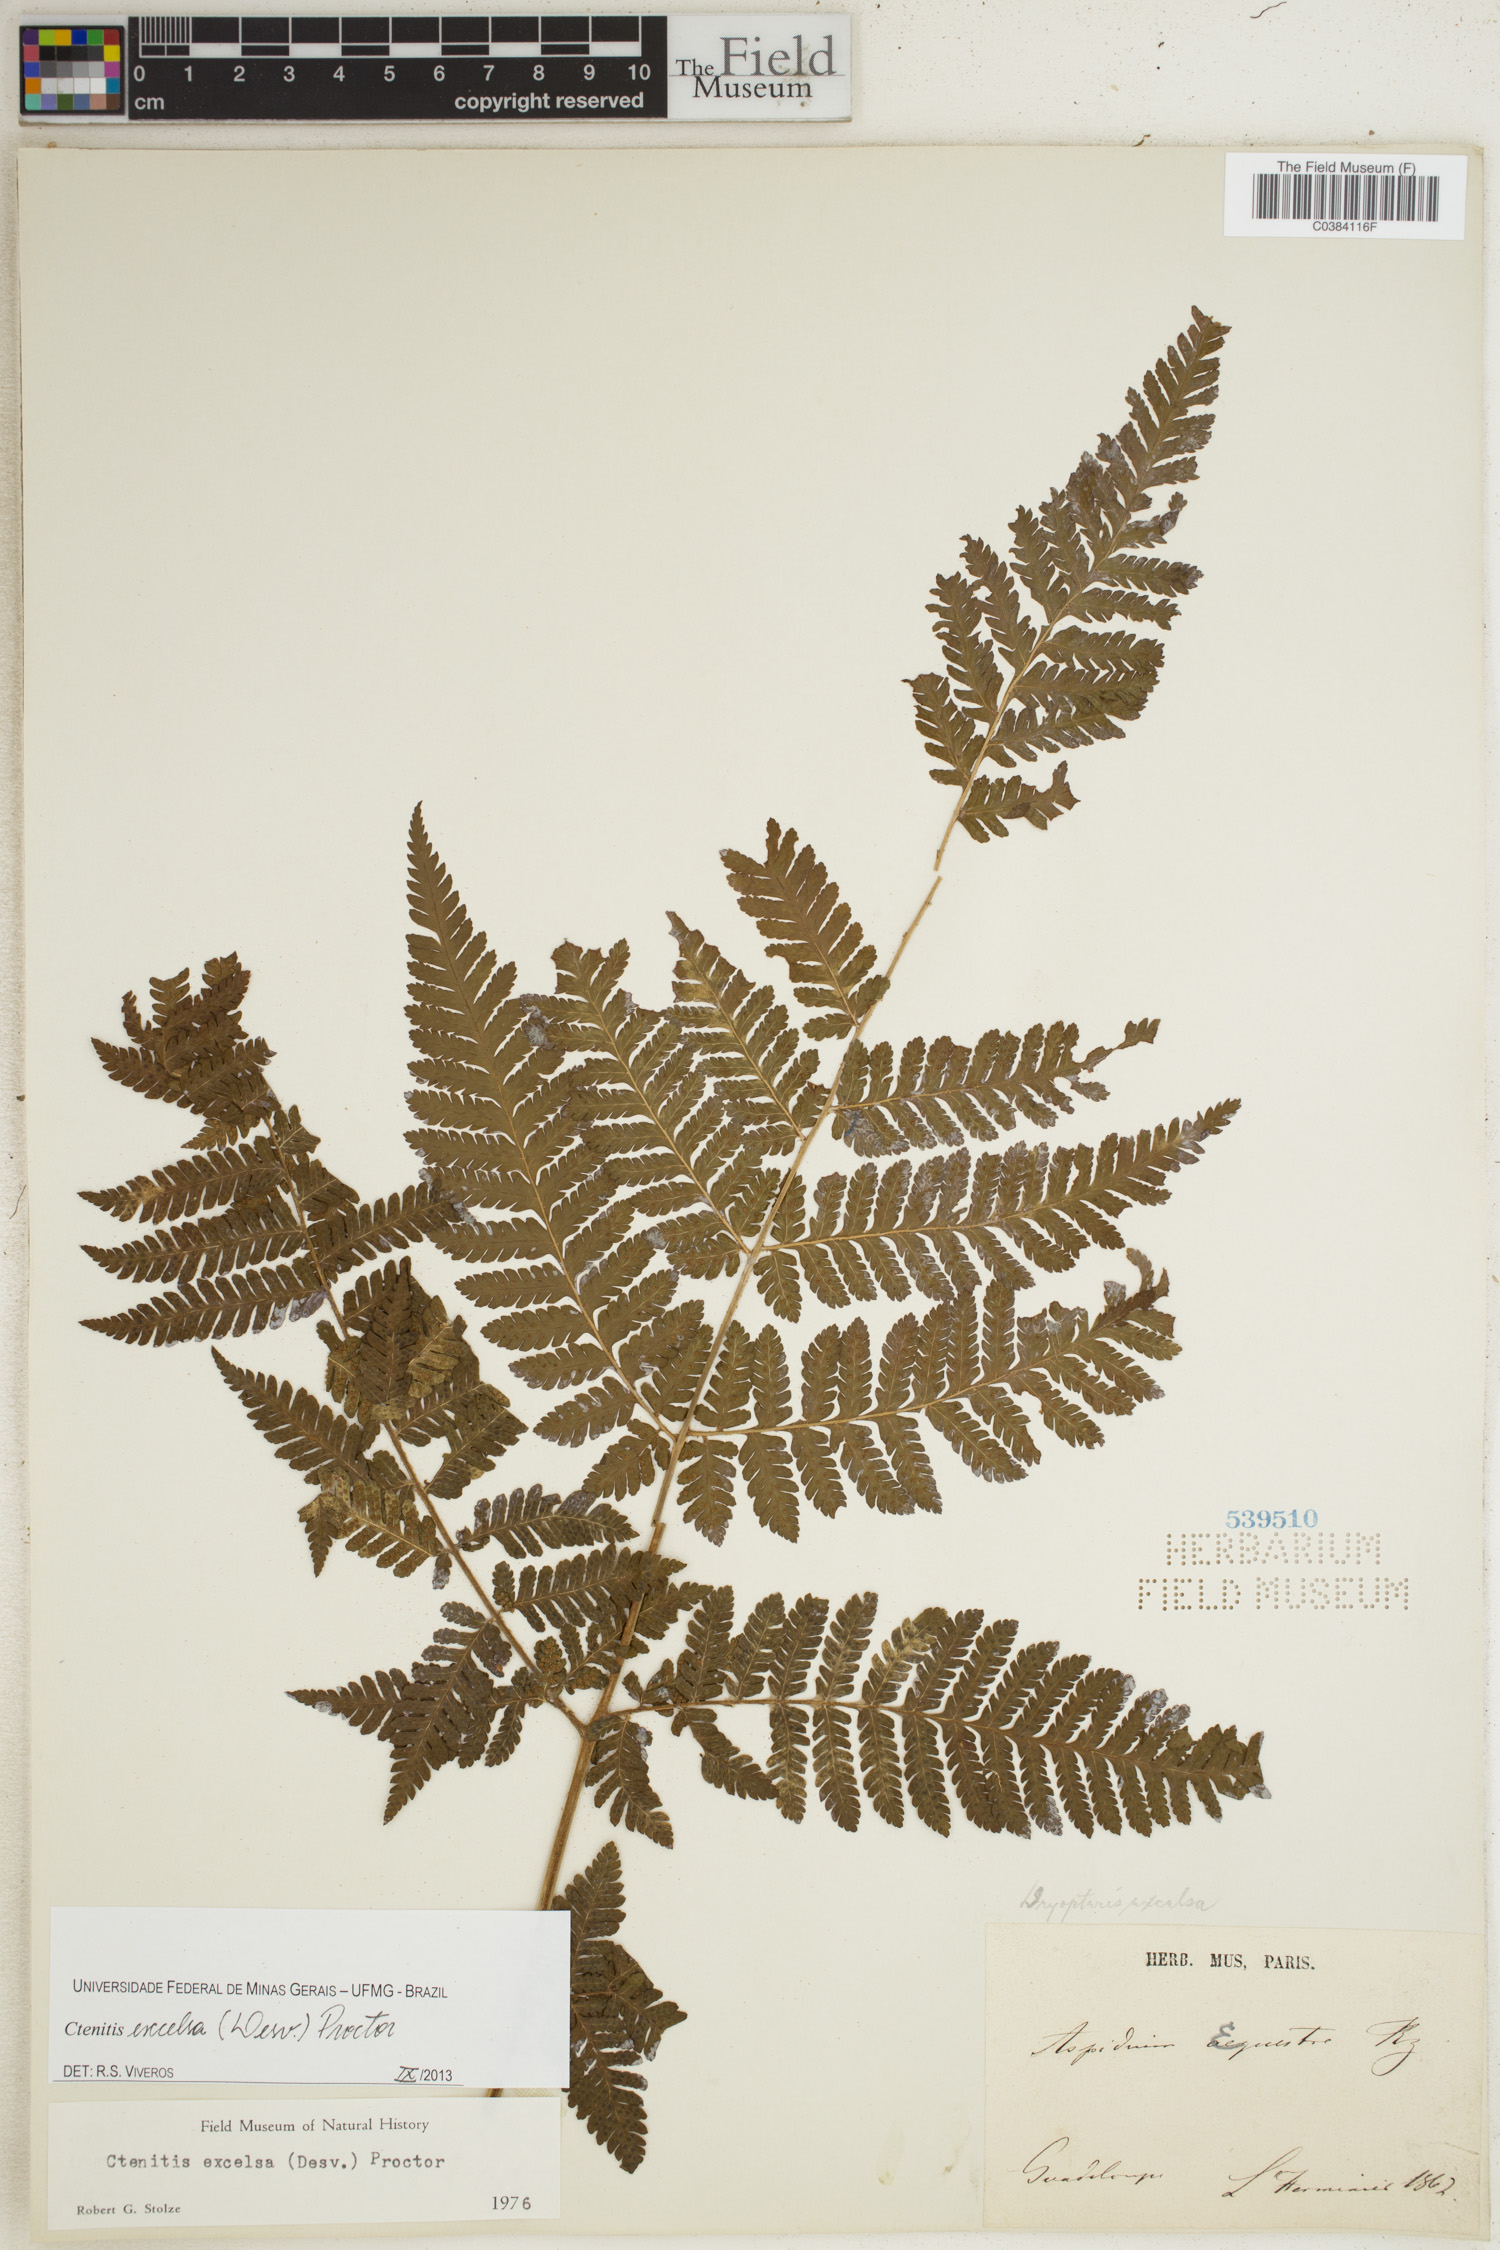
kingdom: Plantae
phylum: Tracheophyta
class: Polypodiopsida
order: Polypodiales
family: Dryopteridaceae
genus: Ctenitis
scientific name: Ctenitis excelsa
